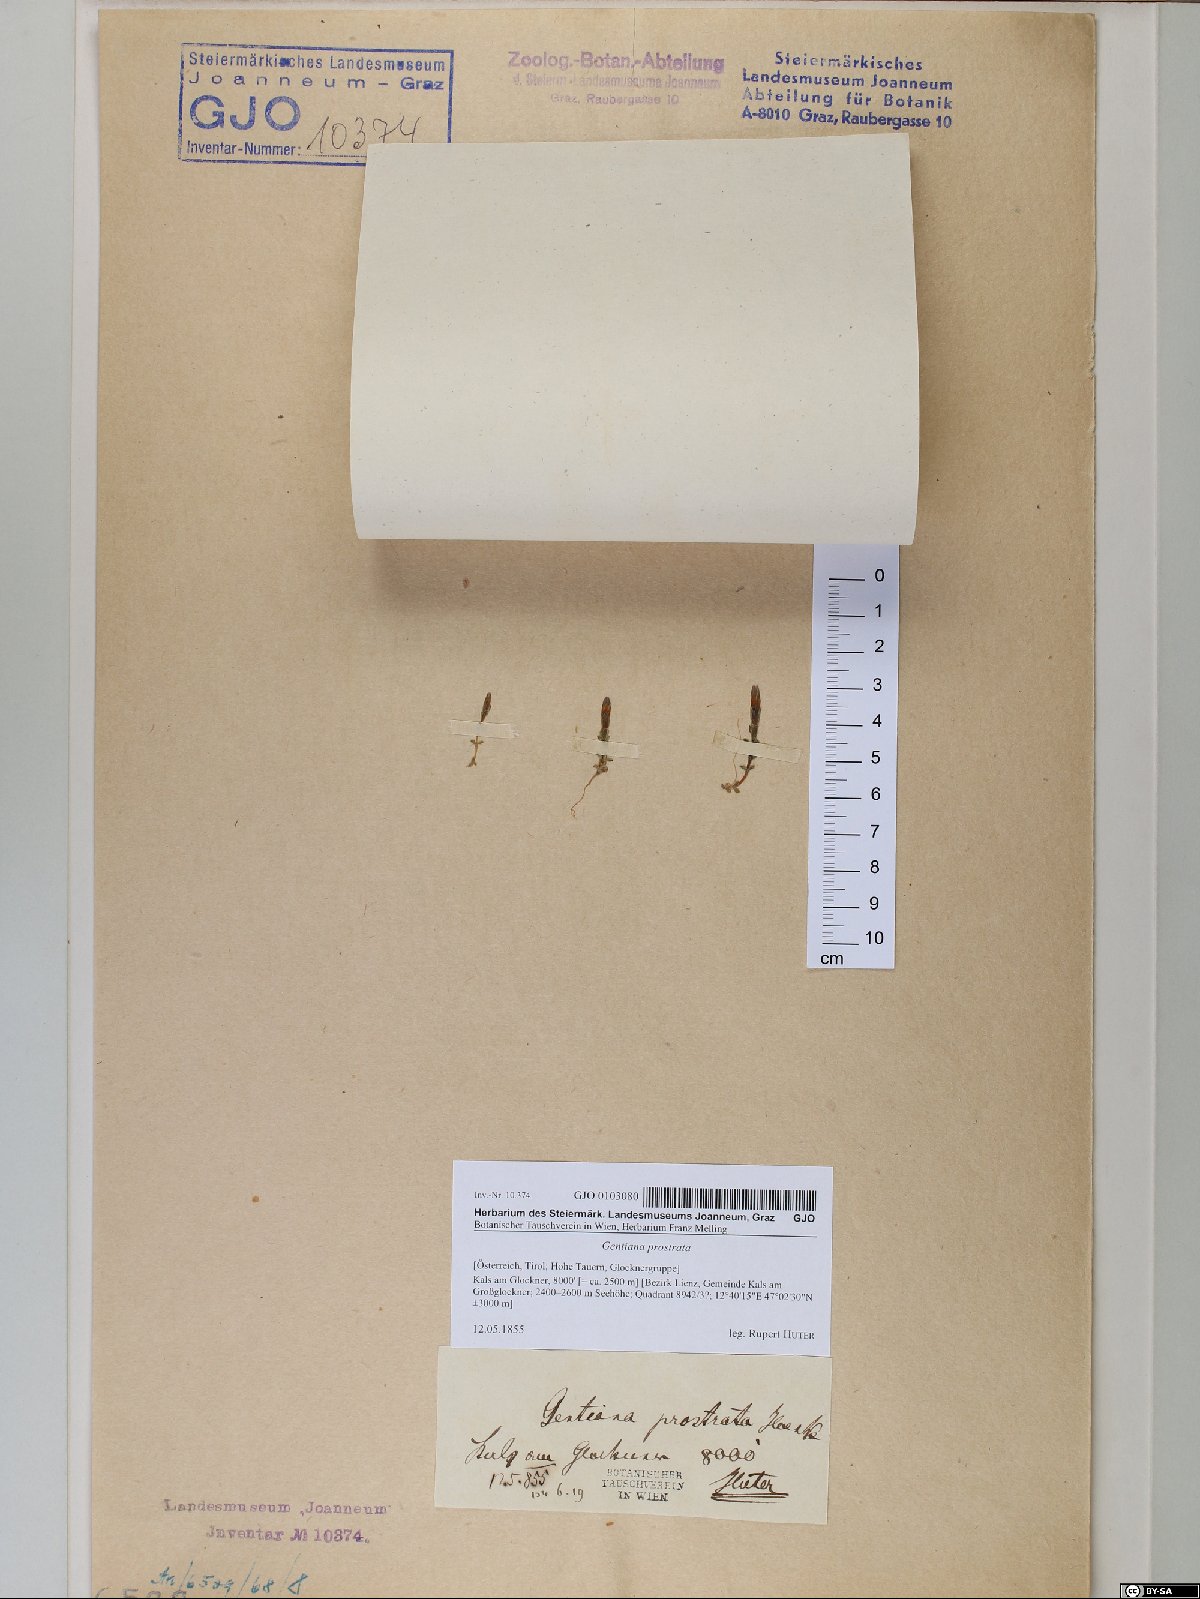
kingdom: Plantae
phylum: Tracheophyta
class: Magnoliopsida
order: Gentianales
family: Gentianaceae
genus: Gentiana
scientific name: Gentiana prostrata
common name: Moss gentian
